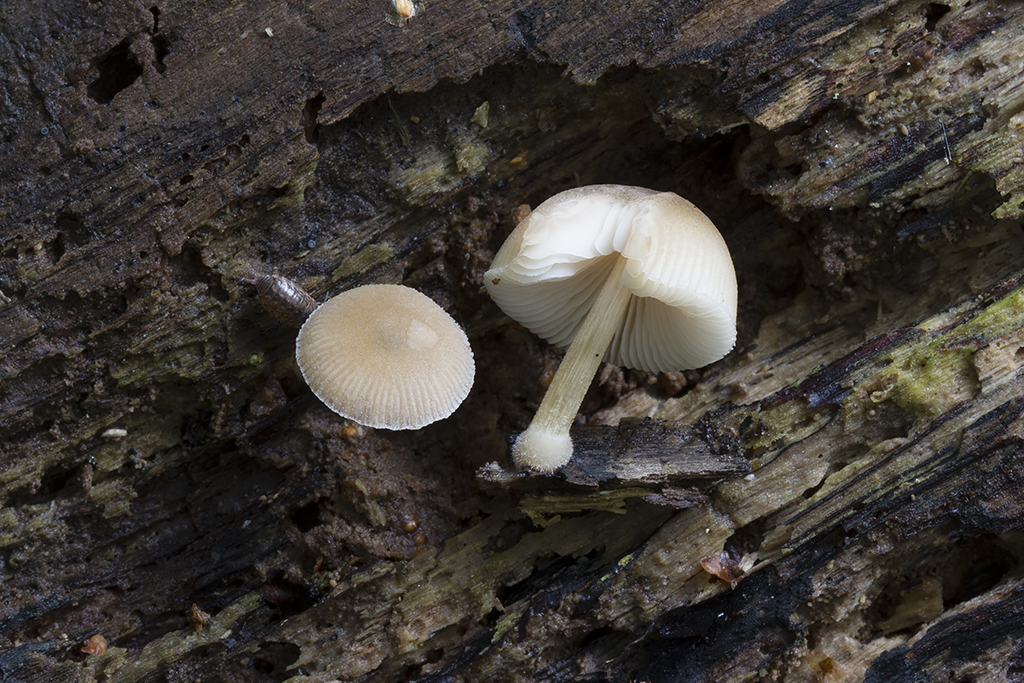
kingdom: Fungi
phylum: Basidiomycota
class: Agaricomycetes
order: Agaricales
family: Pluteaceae
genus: Pluteus
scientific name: Pluteus semibulbosus
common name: knoldet skærmhat
